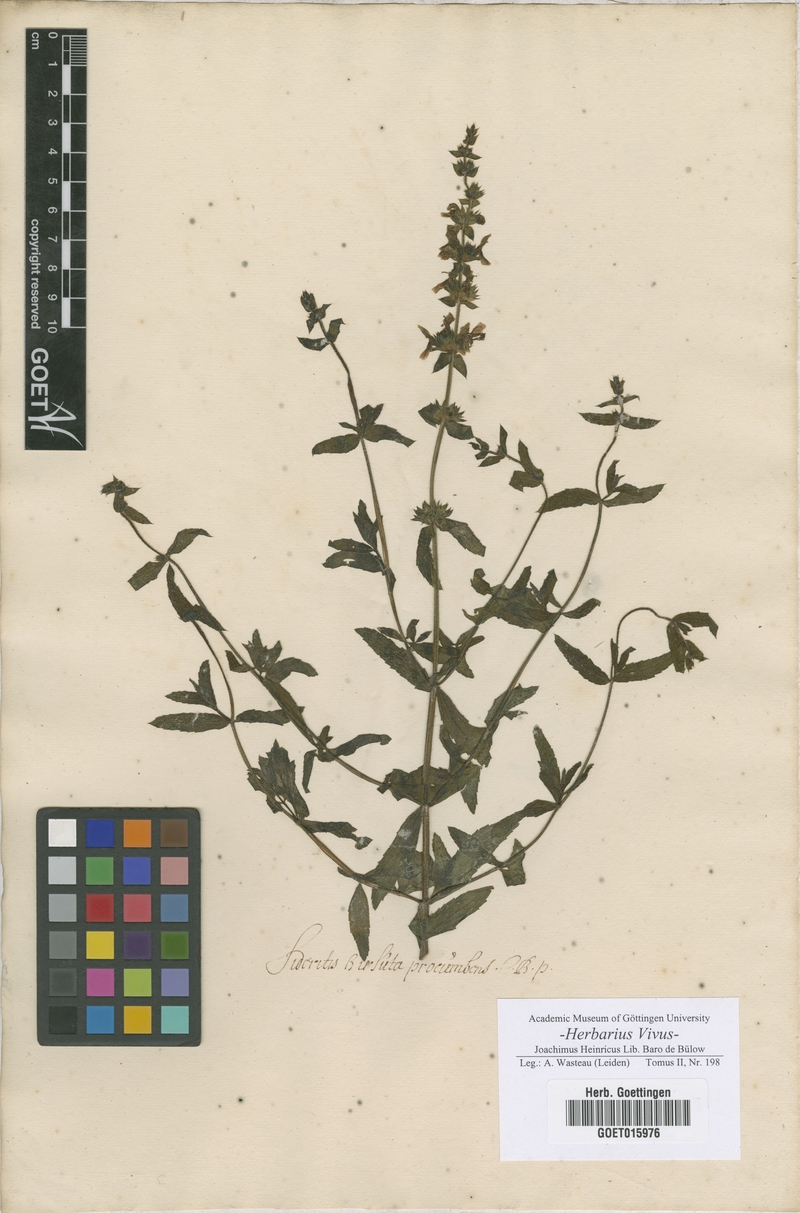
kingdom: Plantae
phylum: Tracheophyta
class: Magnoliopsida
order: Lamiales
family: Lamiaceae
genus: Sideritis
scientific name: Sideritis
